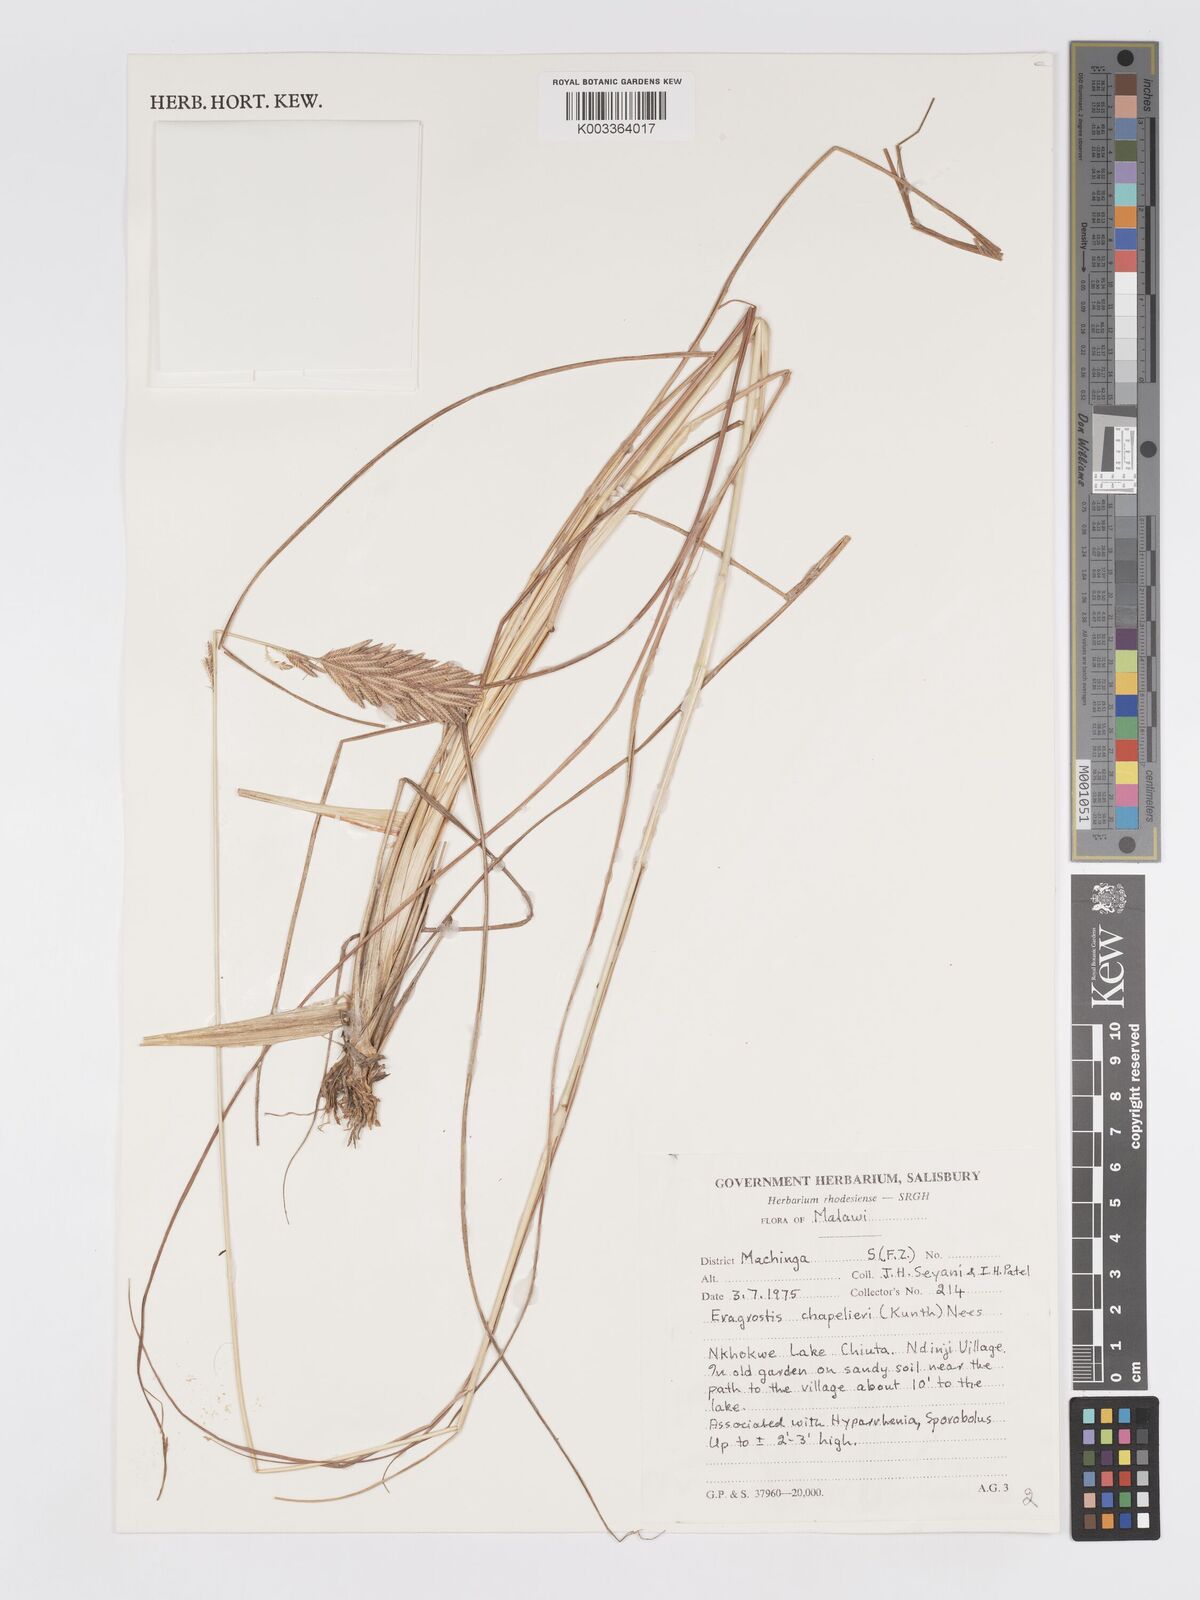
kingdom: Plantae
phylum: Tracheophyta
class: Liliopsida
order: Poales
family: Poaceae
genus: Eragrostis
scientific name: Eragrostis chapelieri
